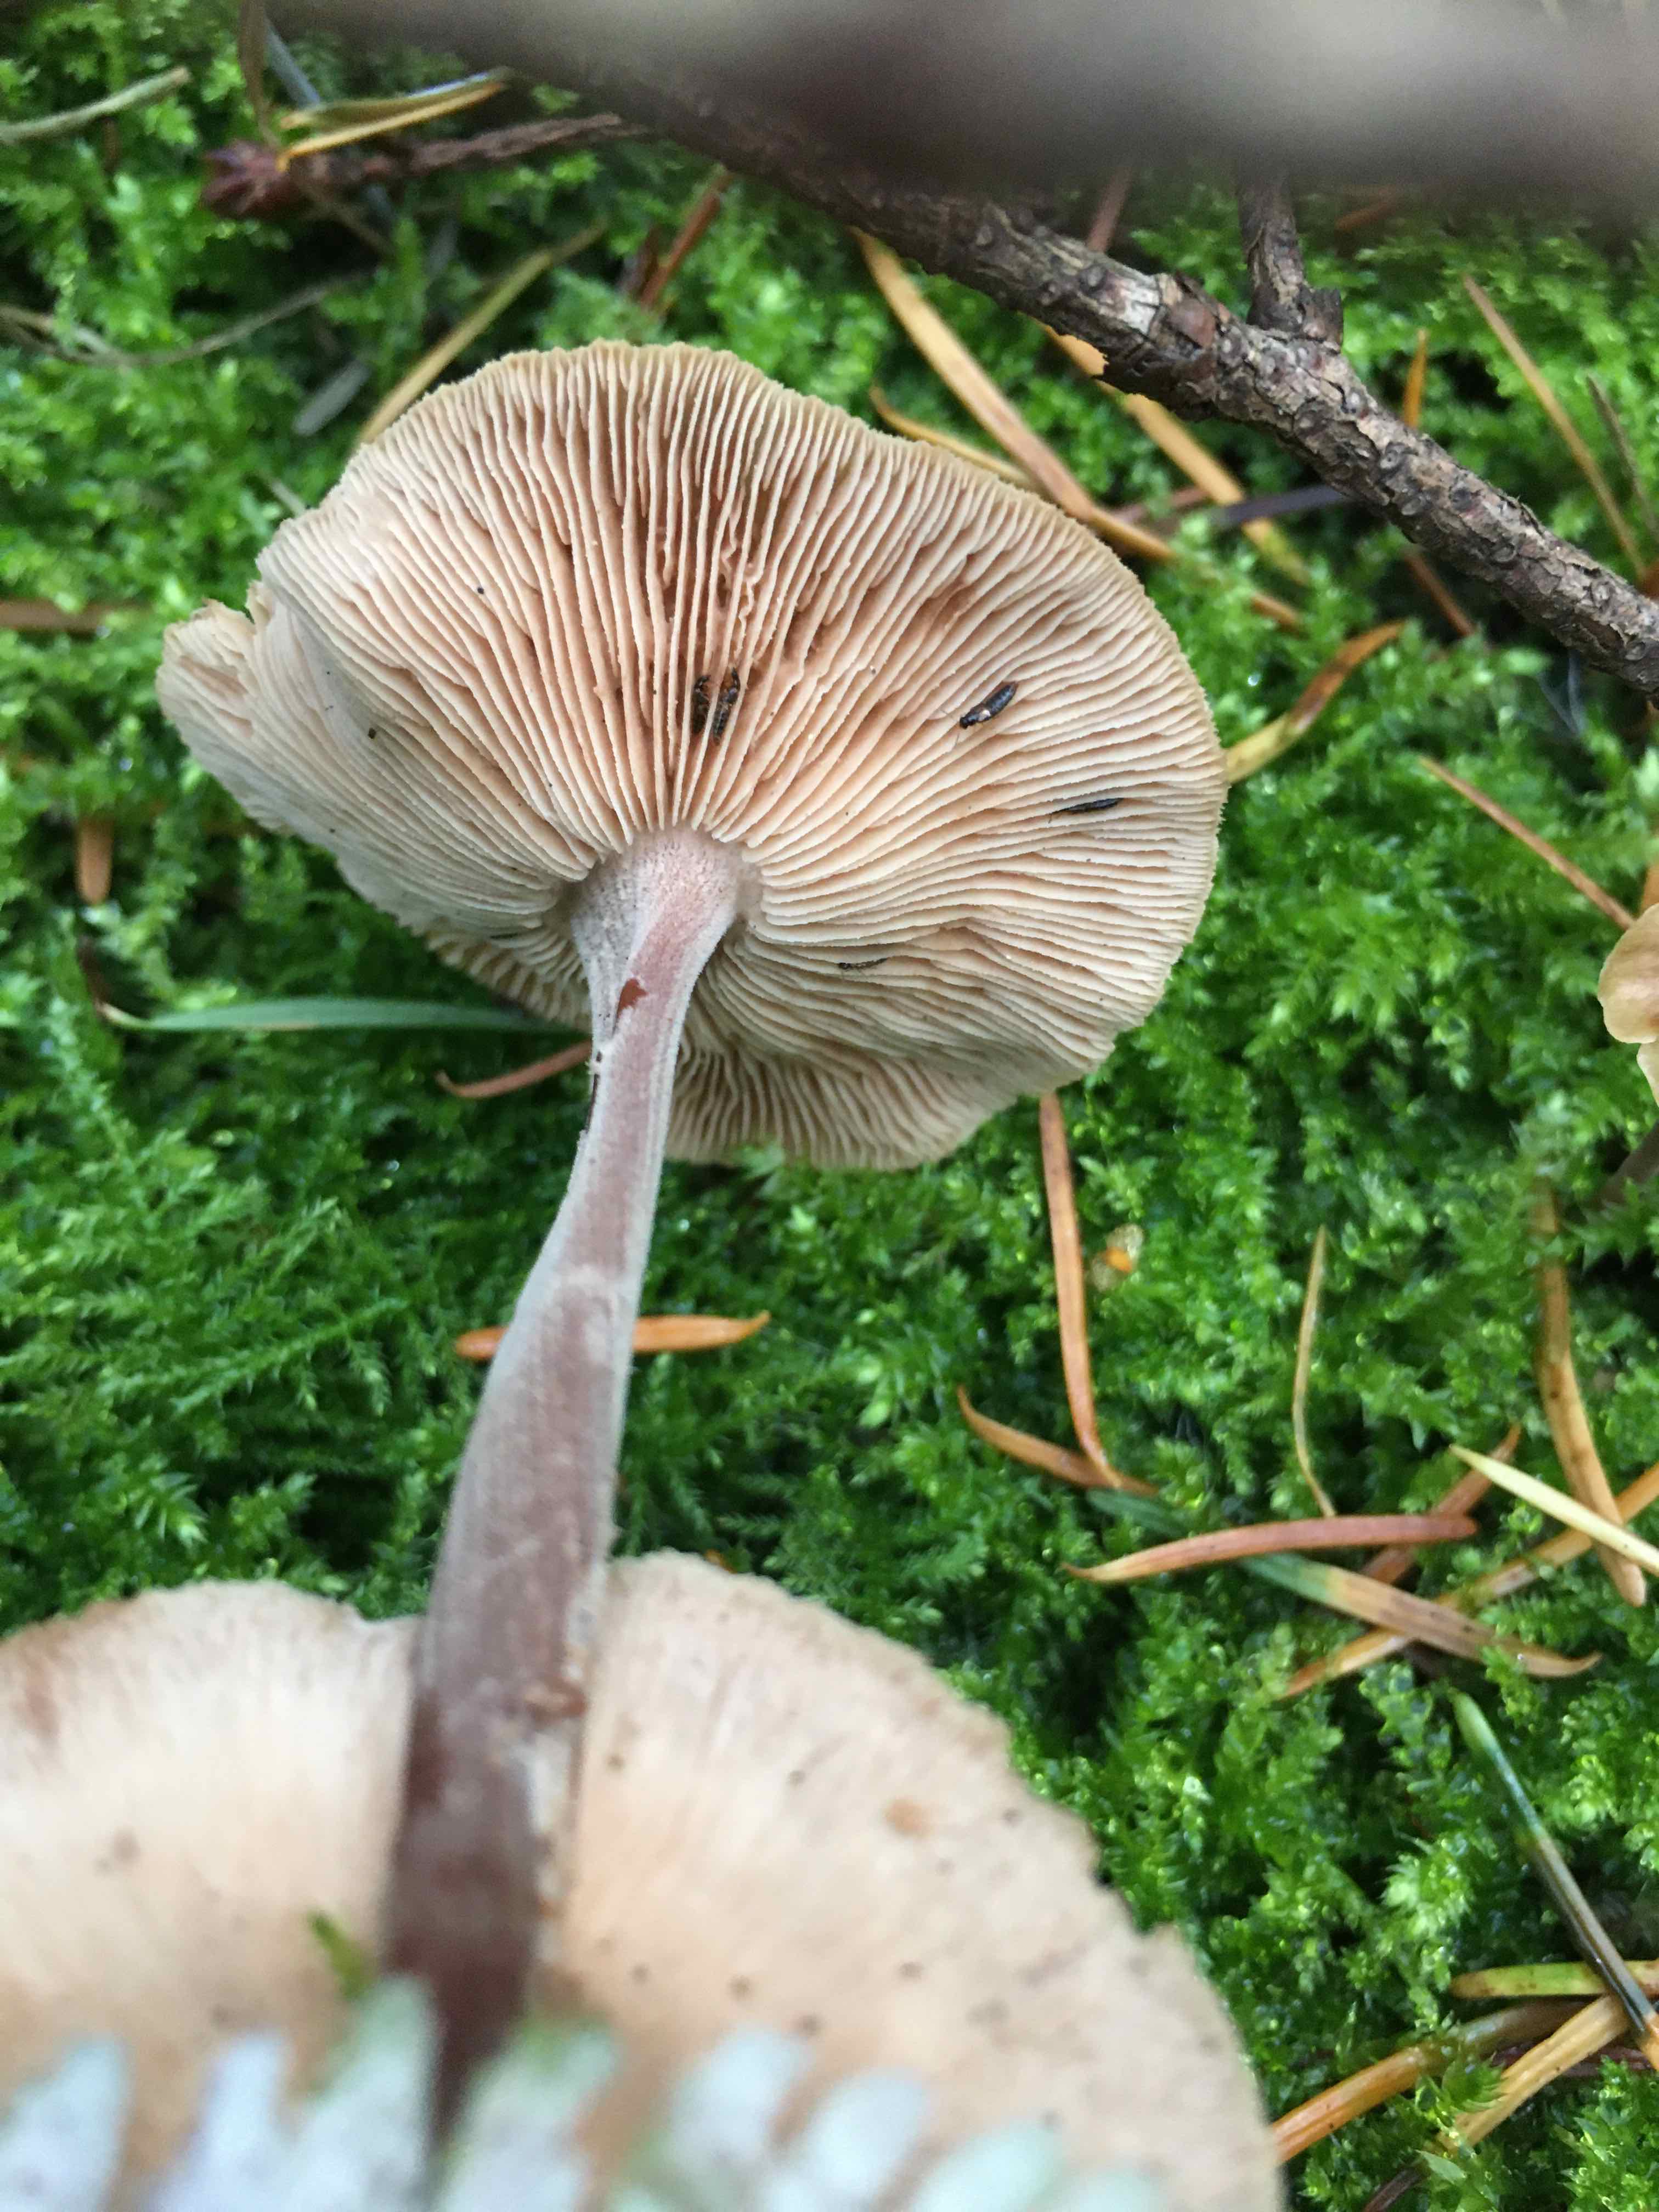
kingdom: Fungi
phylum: Basidiomycota
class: Agaricomycetes
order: Agaricales
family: Omphalotaceae
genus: Collybiopsis
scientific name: Collybiopsis confluens
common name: knippe-fladhat
